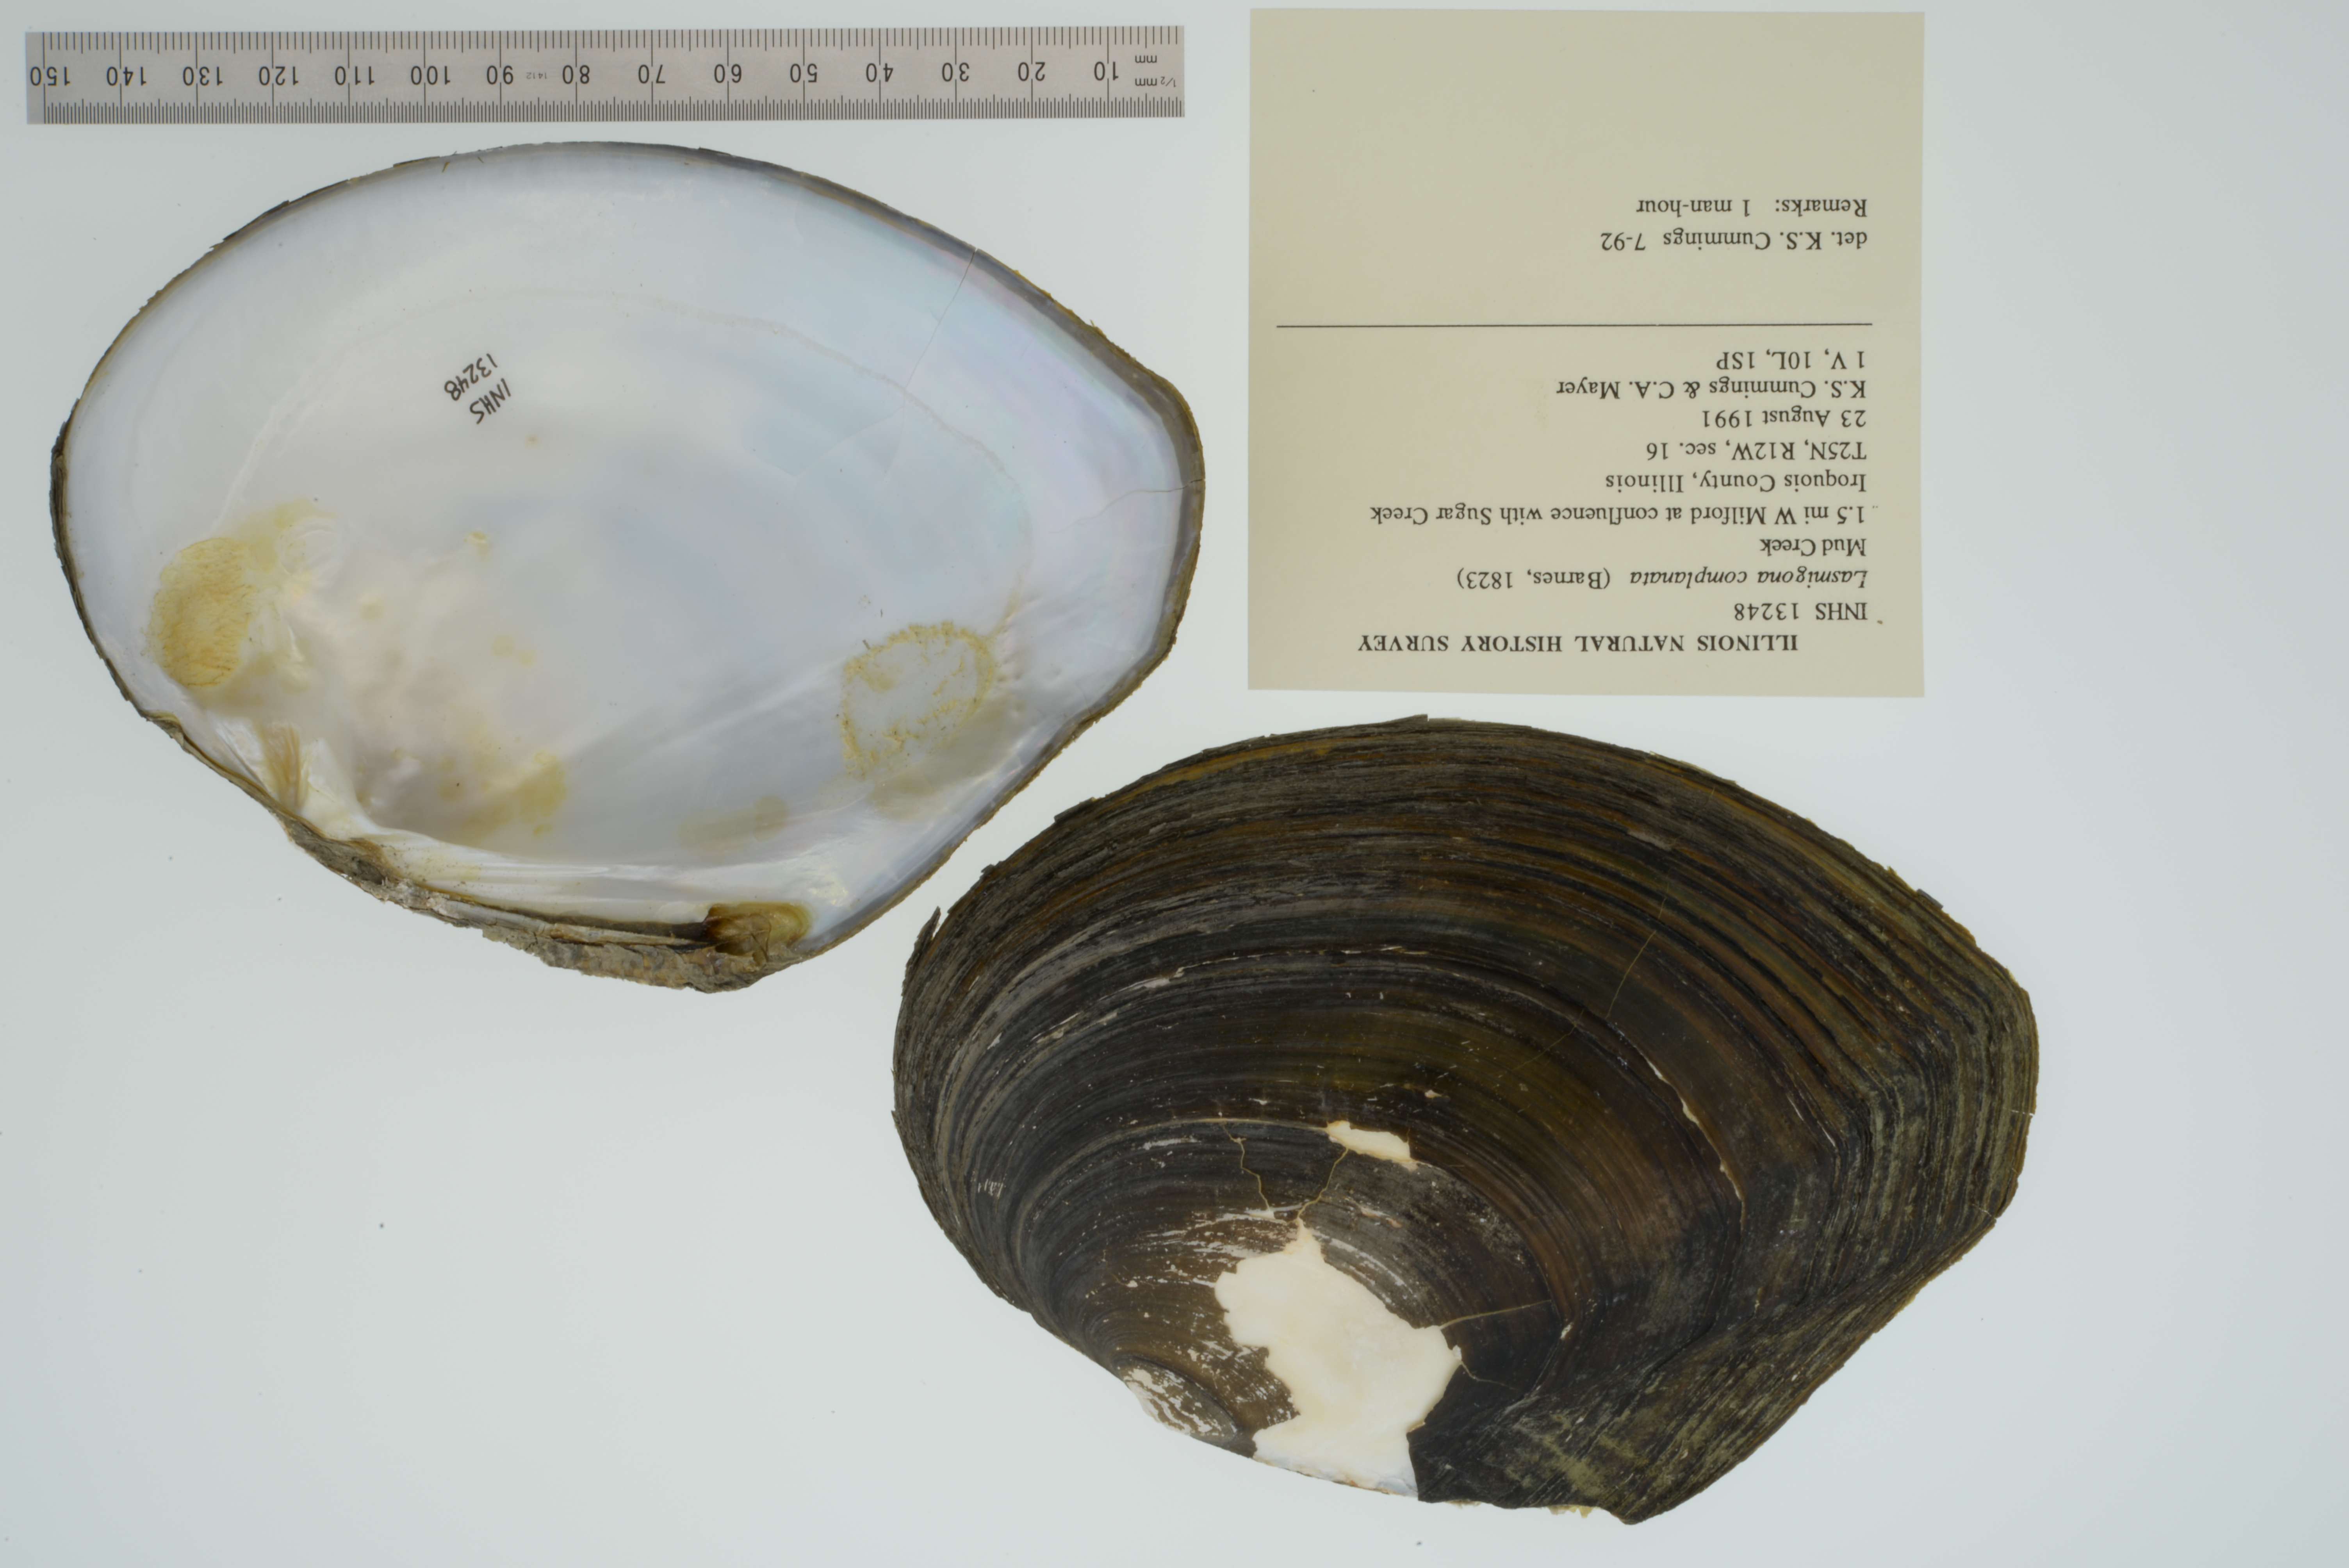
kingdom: Animalia
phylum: Mollusca
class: Bivalvia
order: Unionida
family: Unionidae
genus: Lasmigona
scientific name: Lasmigona complanata
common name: White heelsplitter
